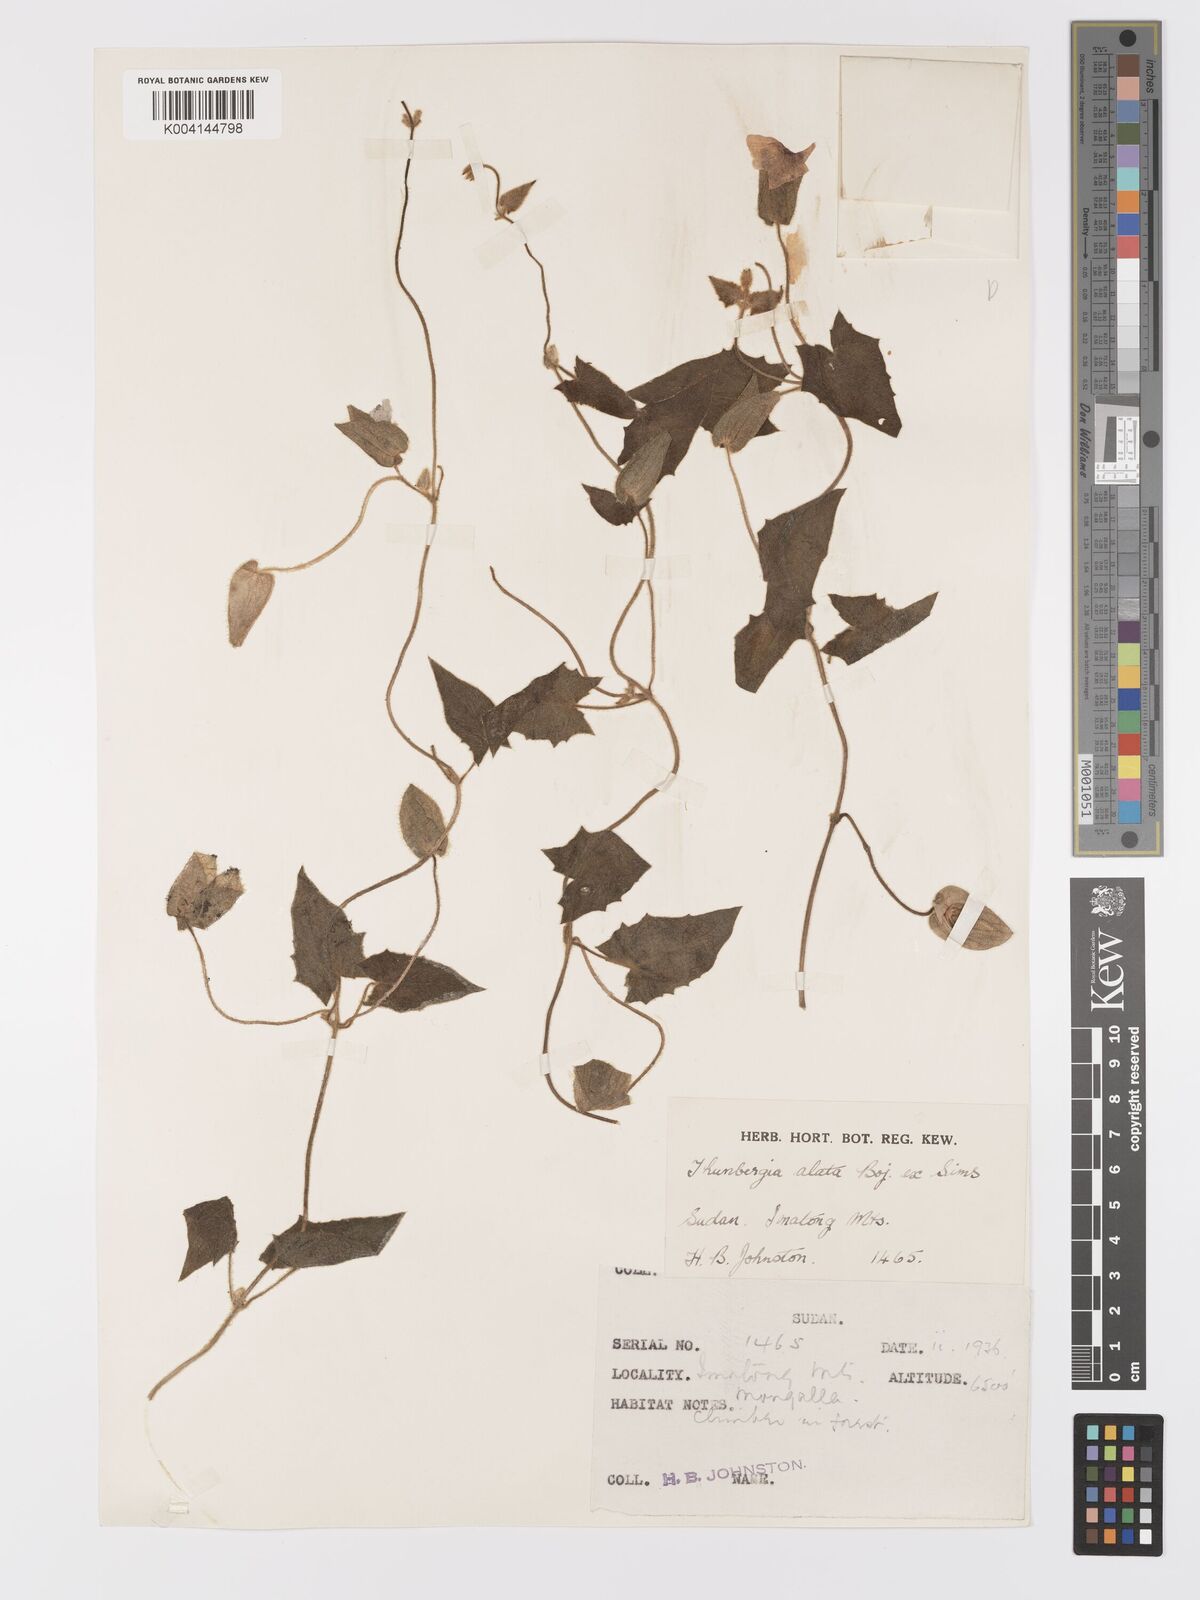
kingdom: Plantae
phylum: Tracheophyta
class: Magnoliopsida
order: Lamiales
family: Acanthaceae
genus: Thunbergia
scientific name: Thunbergia alata
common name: Blackeyed susan vine
